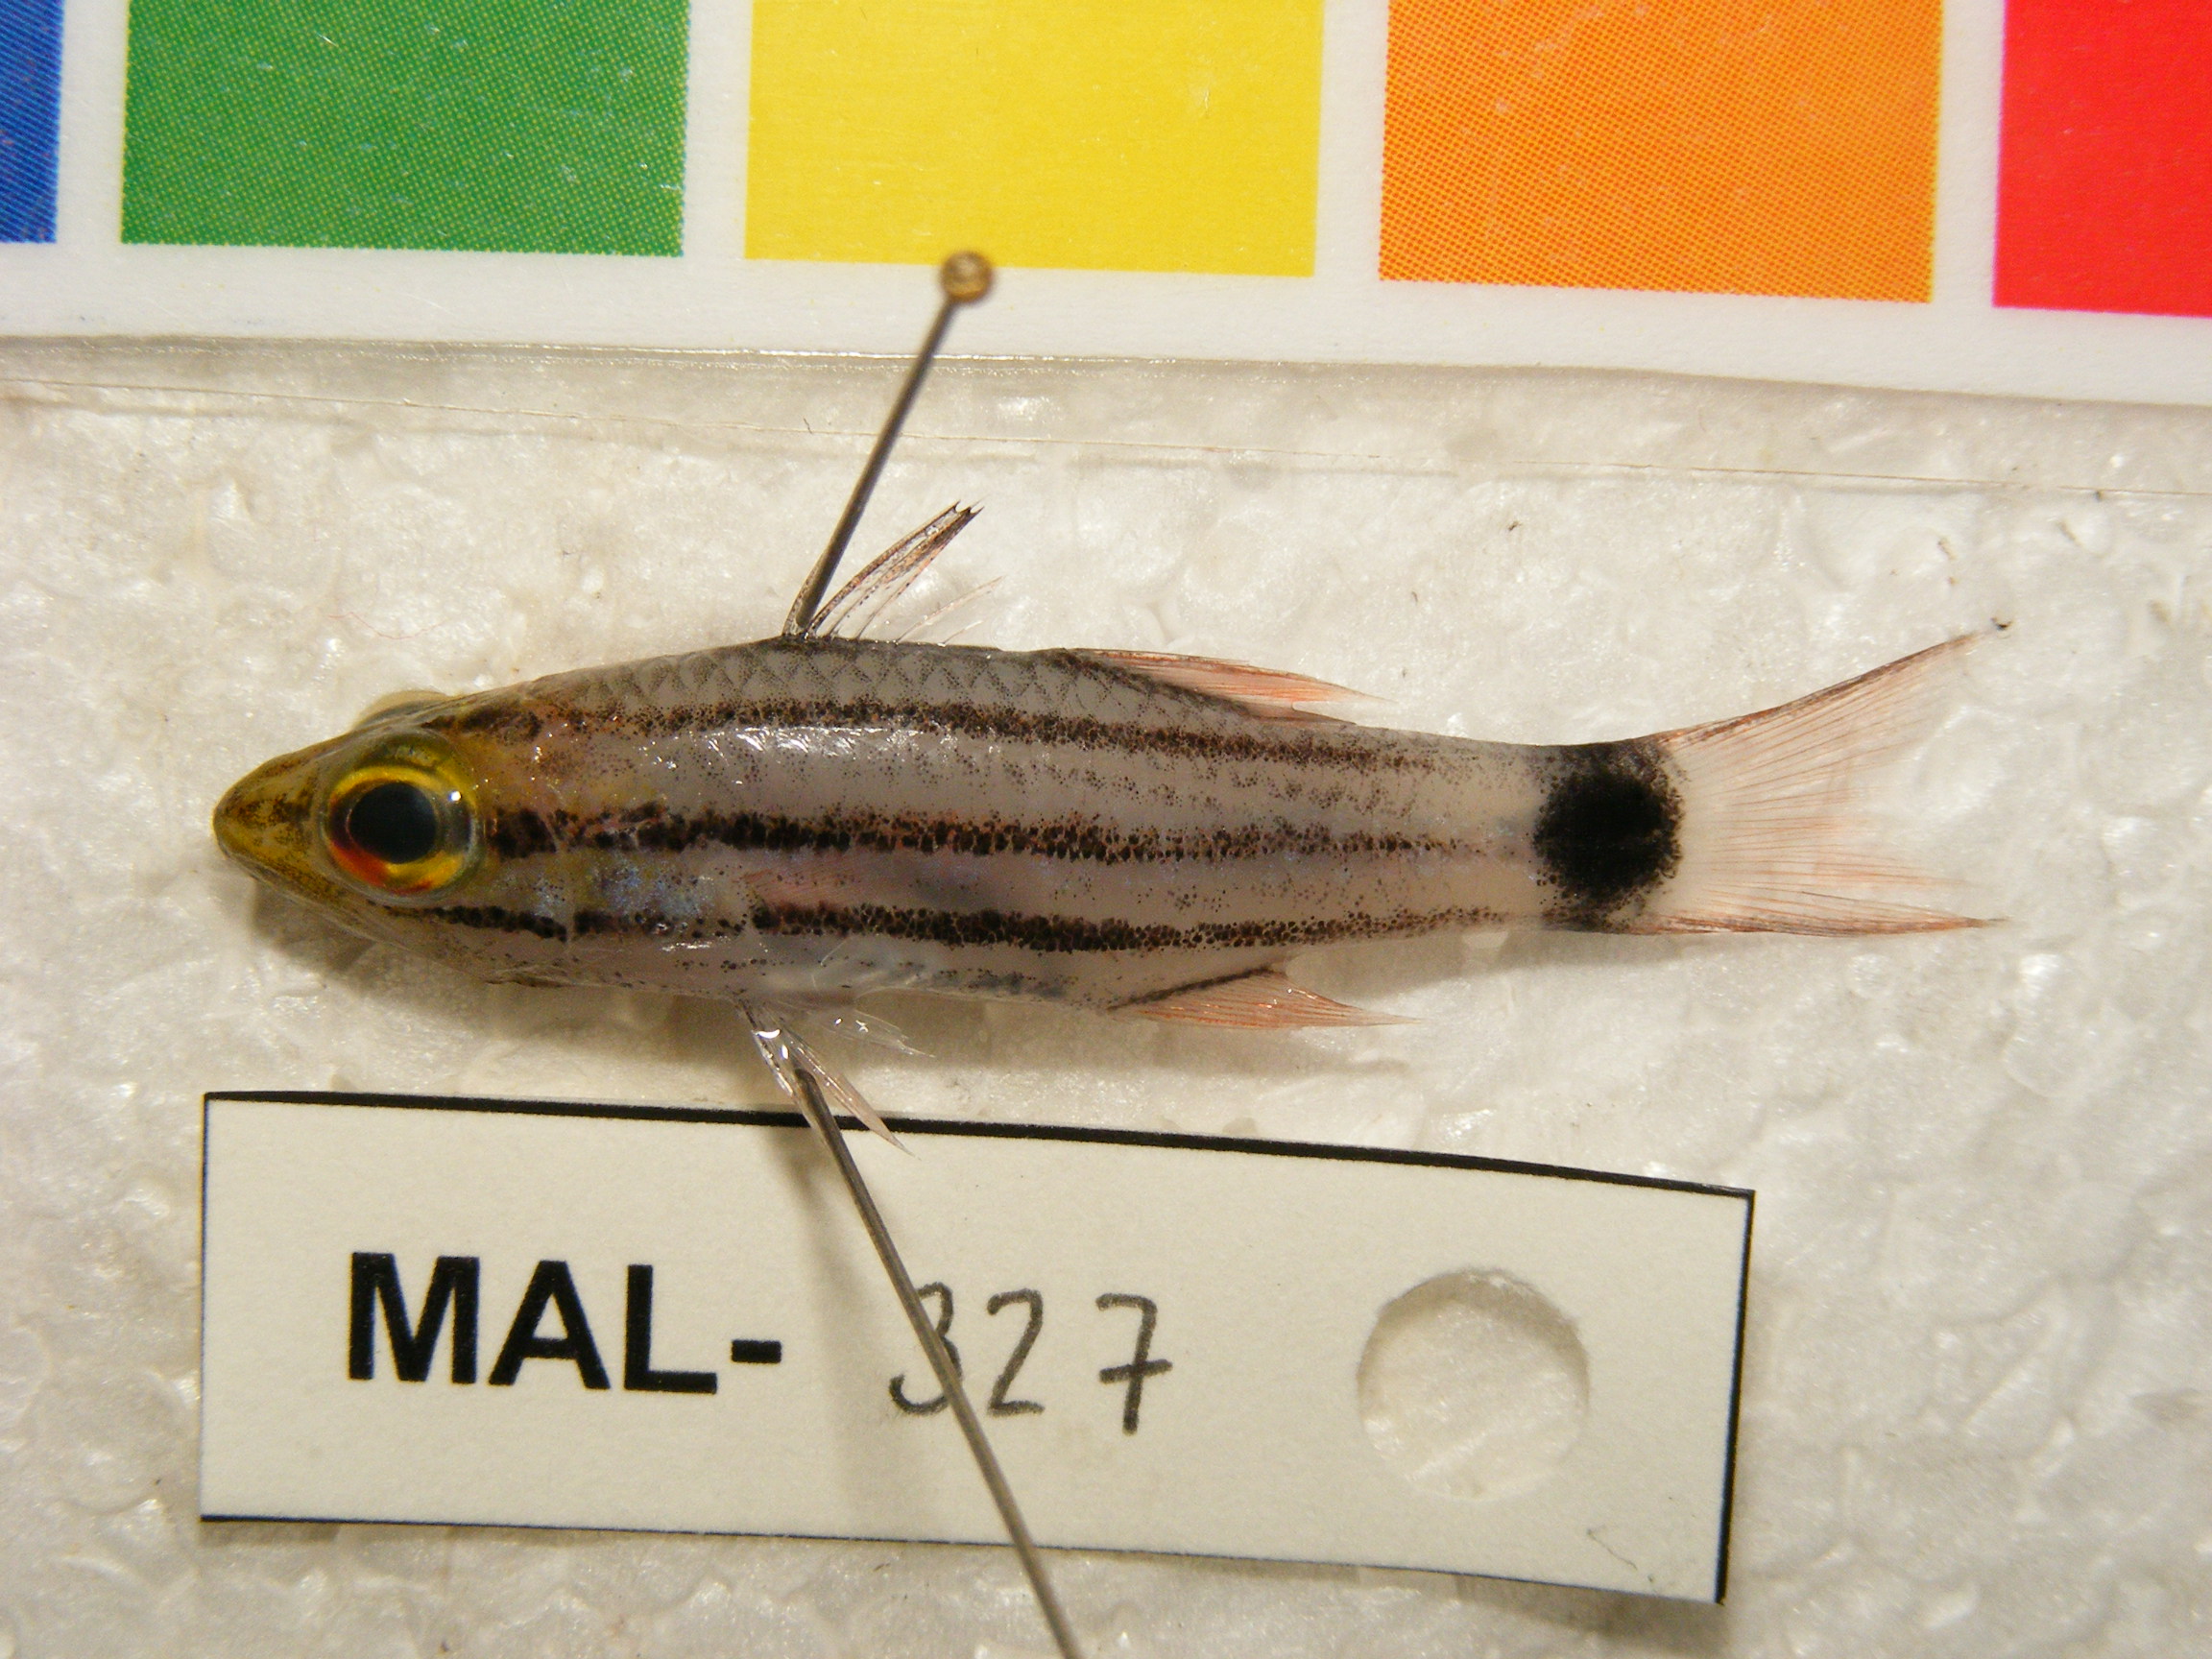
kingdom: Animalia
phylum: Chordata
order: Perciformes
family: Apogonidae
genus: Cheilodipterus
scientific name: Cheilodipterus macrodon
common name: Eight-lined cardinalfish
